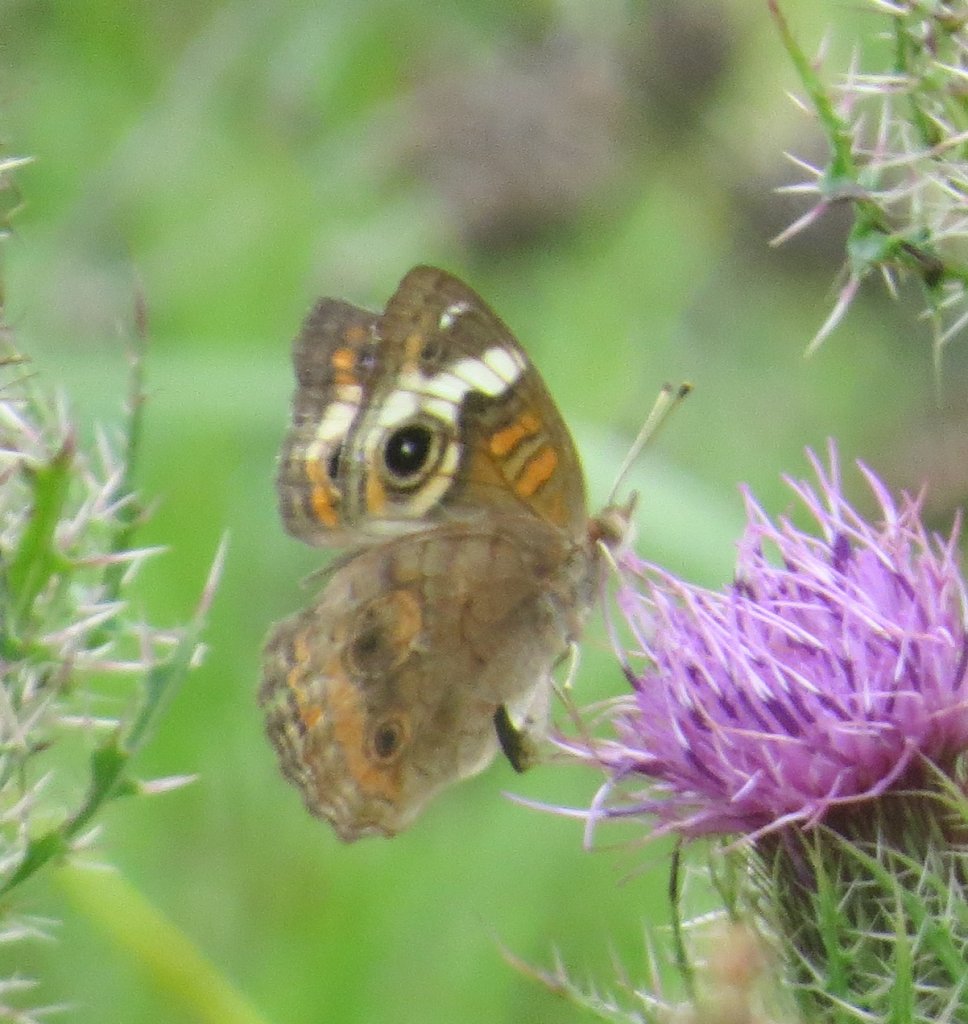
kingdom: Animalia
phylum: Arthropoda
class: Insecta
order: Lepidoptera
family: Nymphalidae
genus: Junonia
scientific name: Junonia coenia
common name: Common Buckeye
